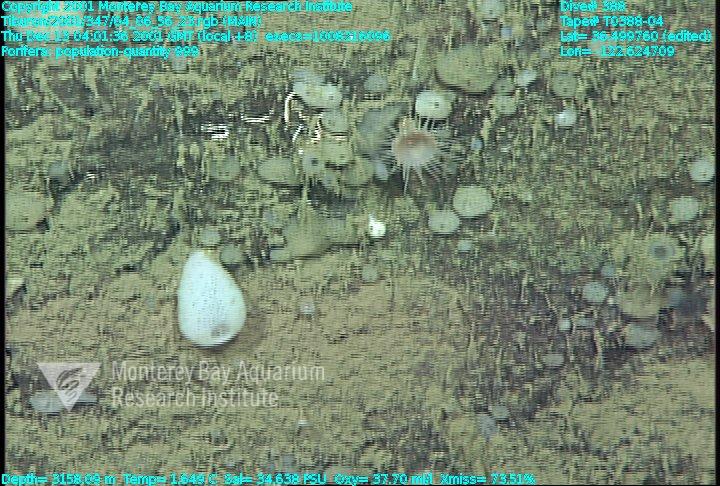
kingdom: Animalia
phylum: Porifera
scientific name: Porifera
